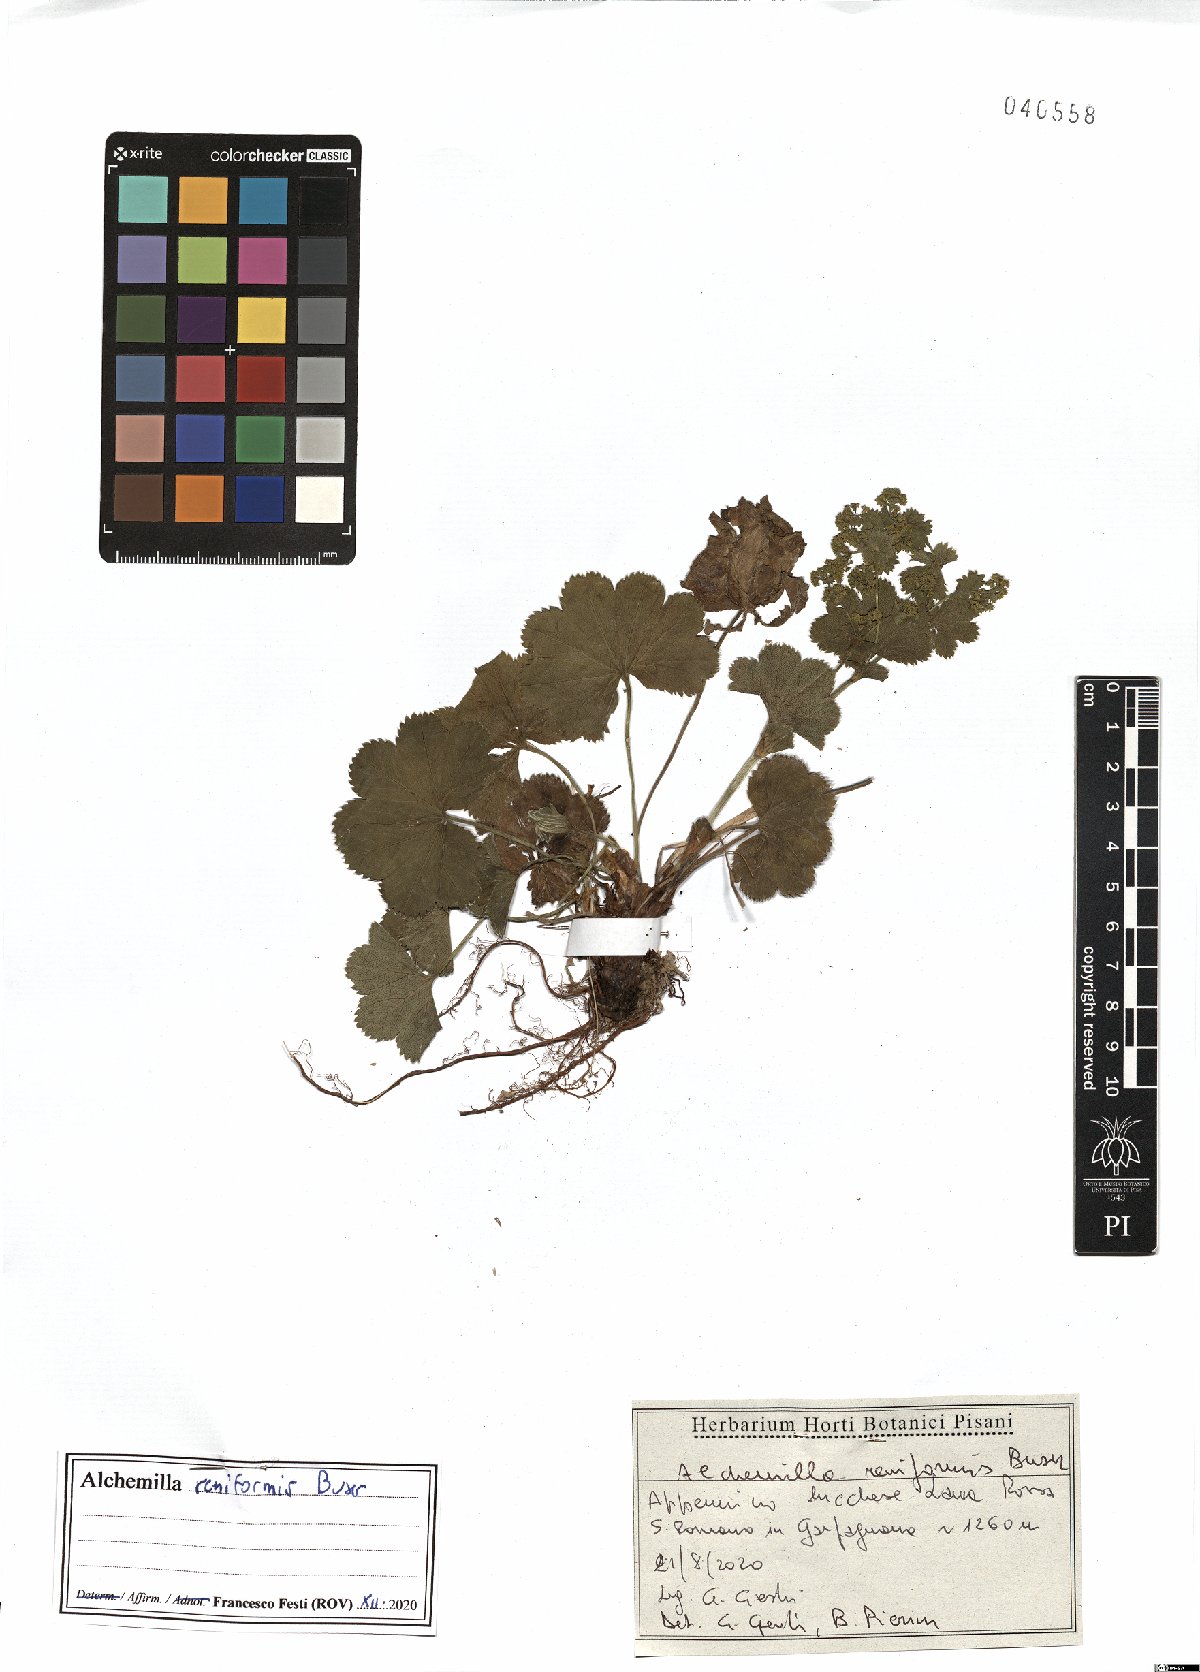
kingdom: Plantae
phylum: Tracheophyta
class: Magnoliopsida
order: Rosales
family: Rosaceae
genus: Alchemilla
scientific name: Alchemilla reniformis
